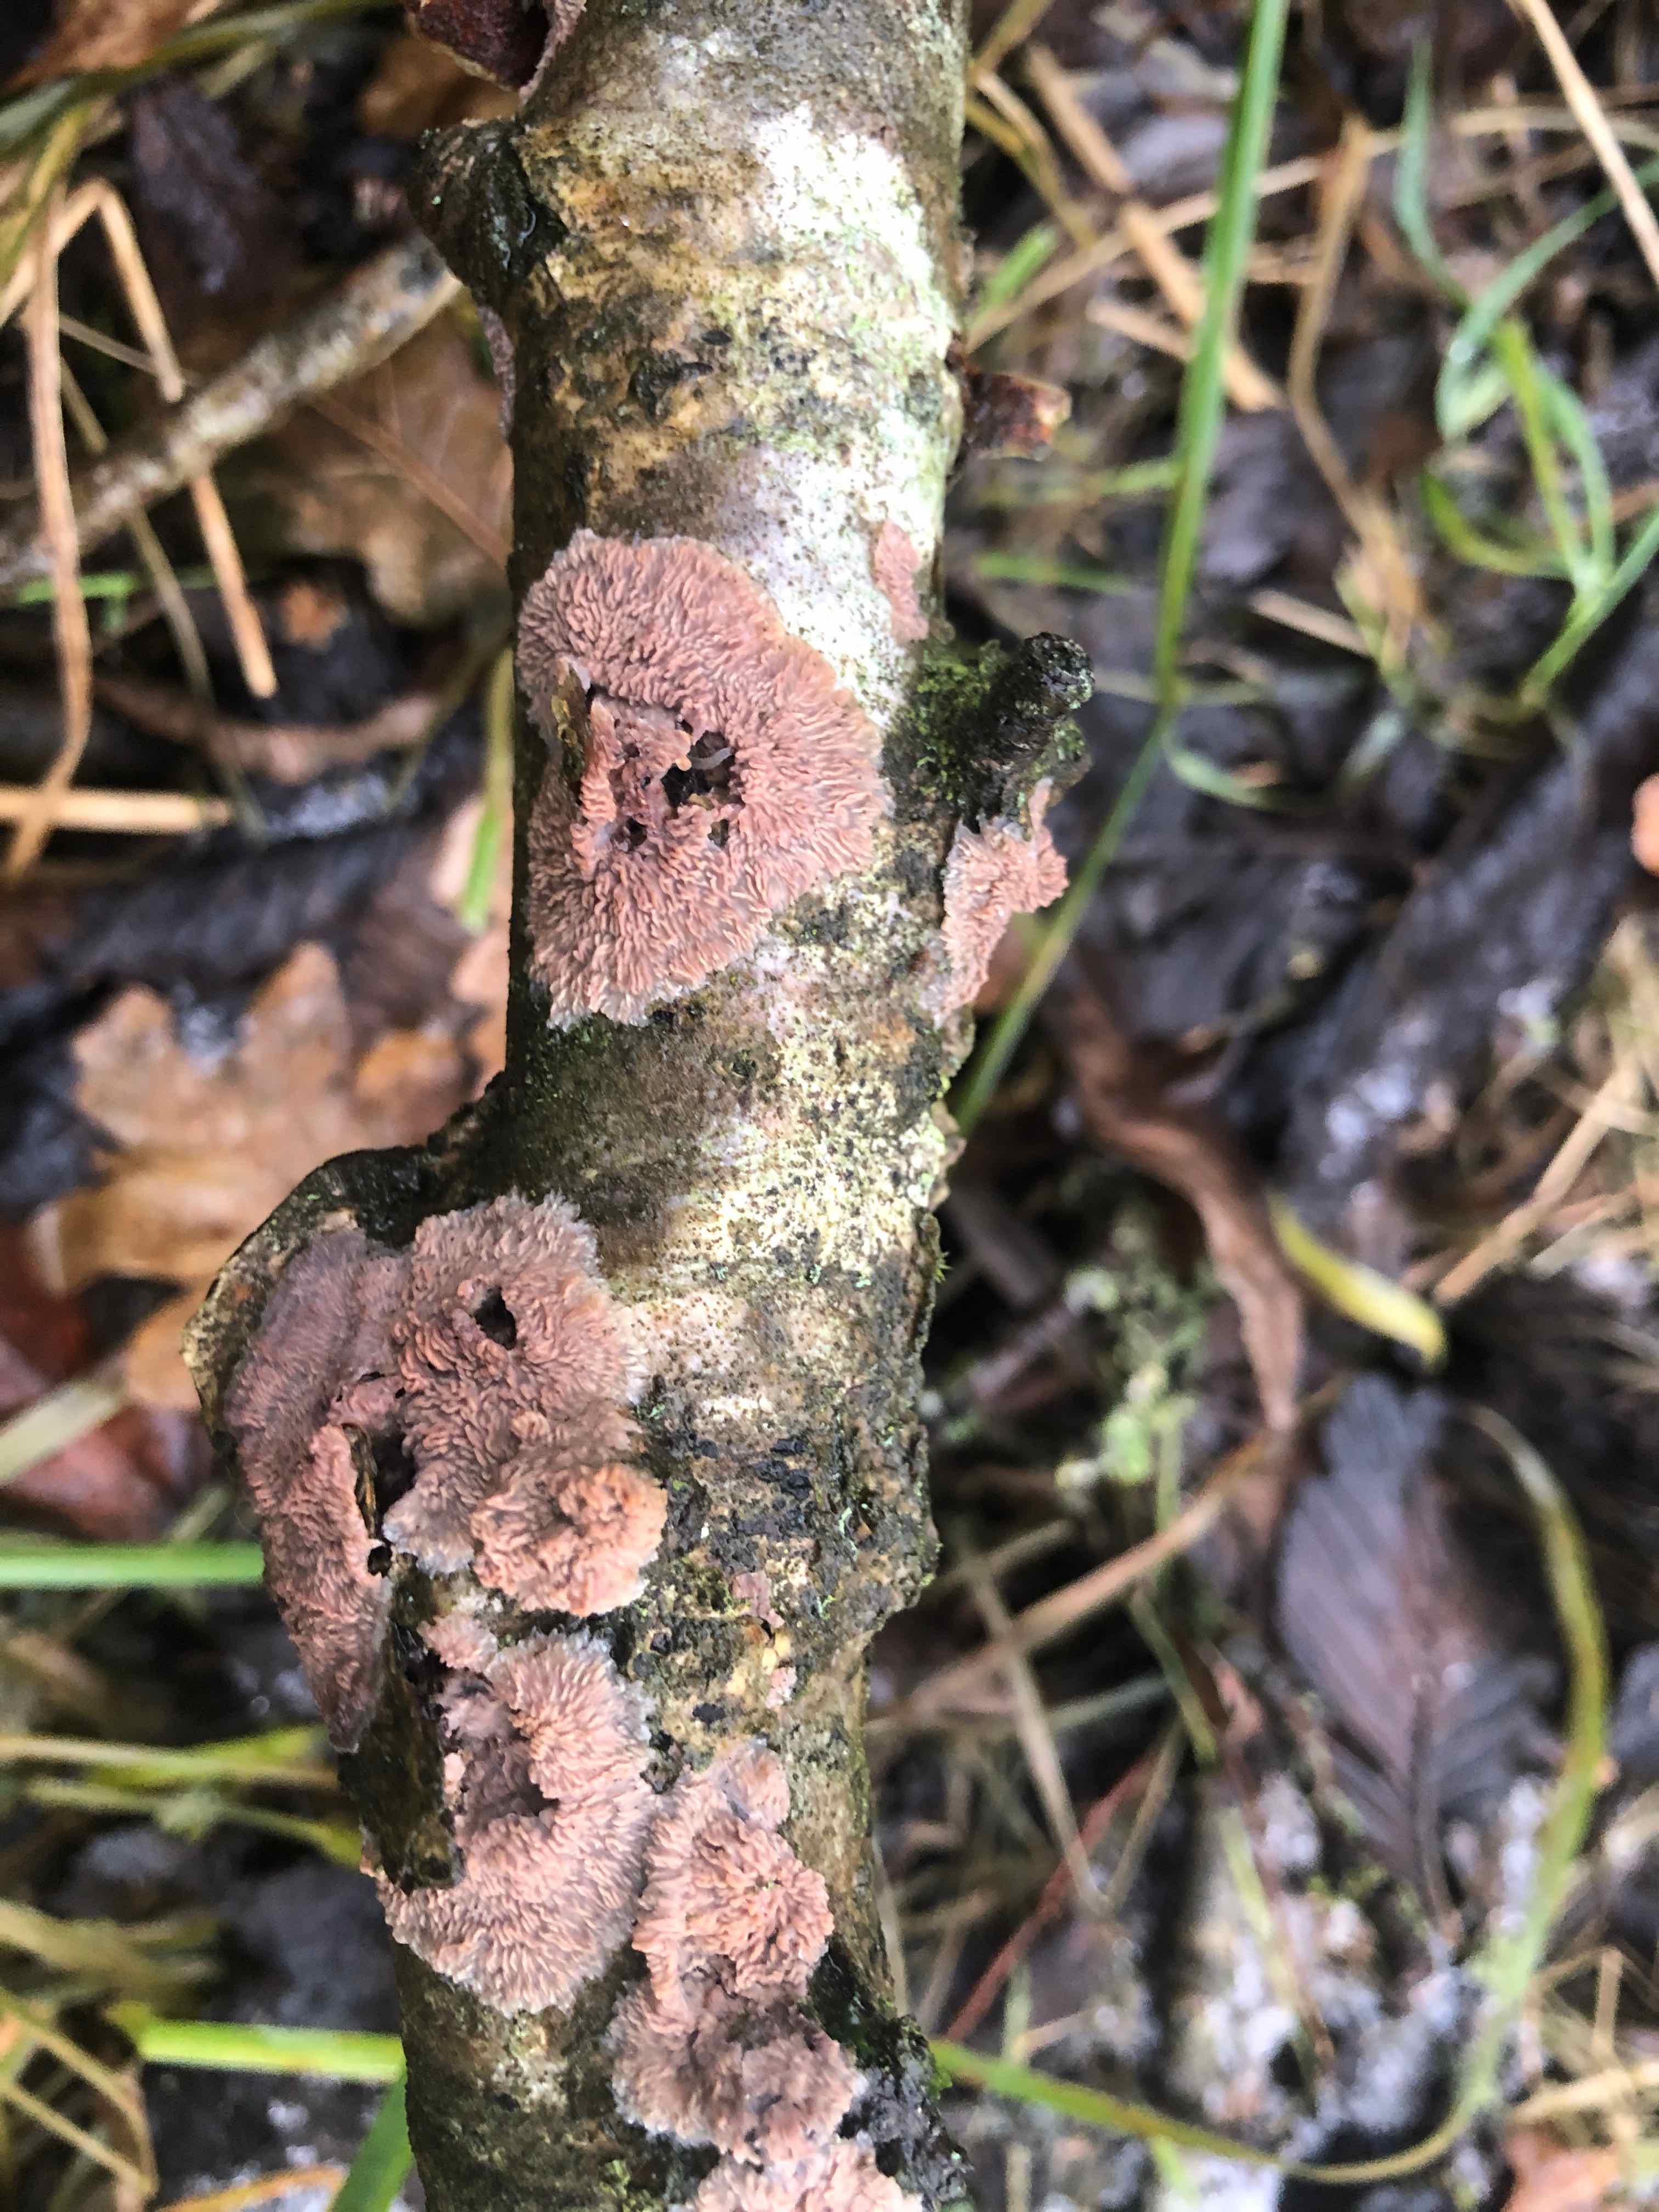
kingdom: Fungi
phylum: Basidiomycota
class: Agaricomycetes
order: Polyporales
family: Meruliaceae
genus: Phlebia
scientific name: Phlebia radiata
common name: stråle-åresvamp
